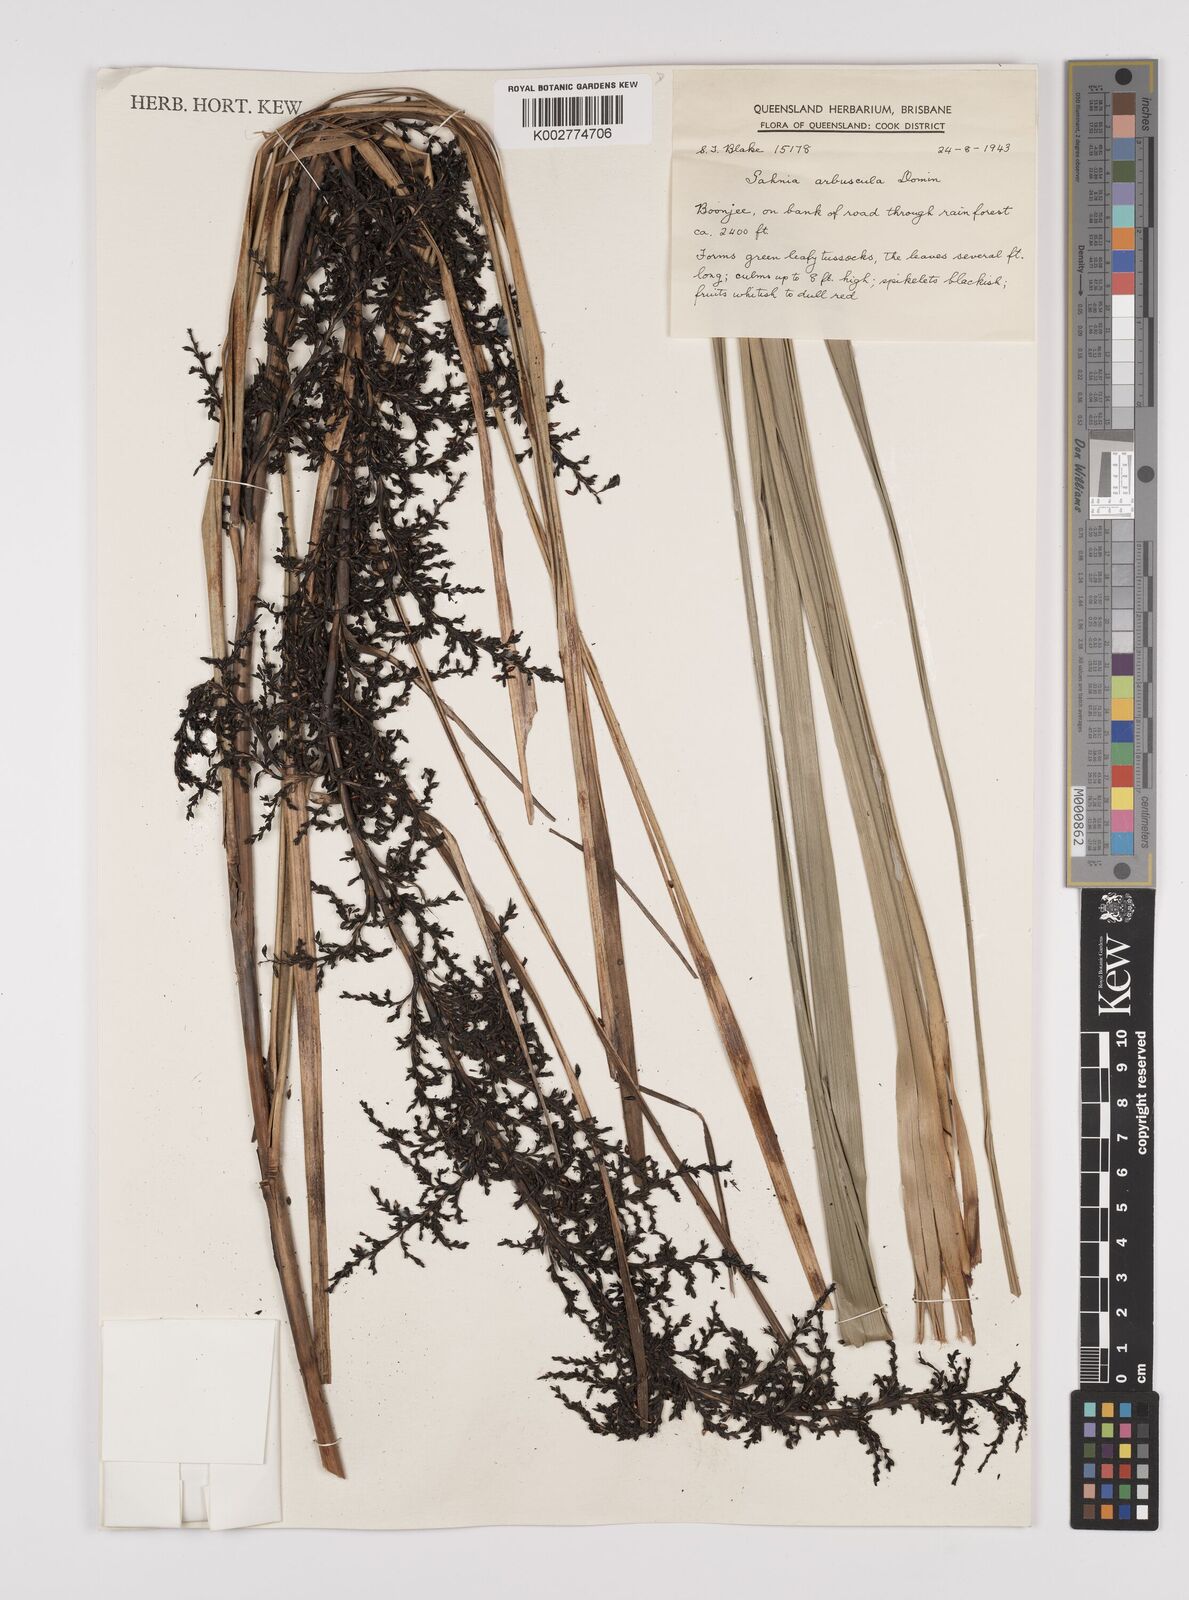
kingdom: Plantae
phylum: Tracheophyta
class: Liliopsida
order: Poales
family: Cyperaceae
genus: Gahnia
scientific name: Gahnia sieberiana
